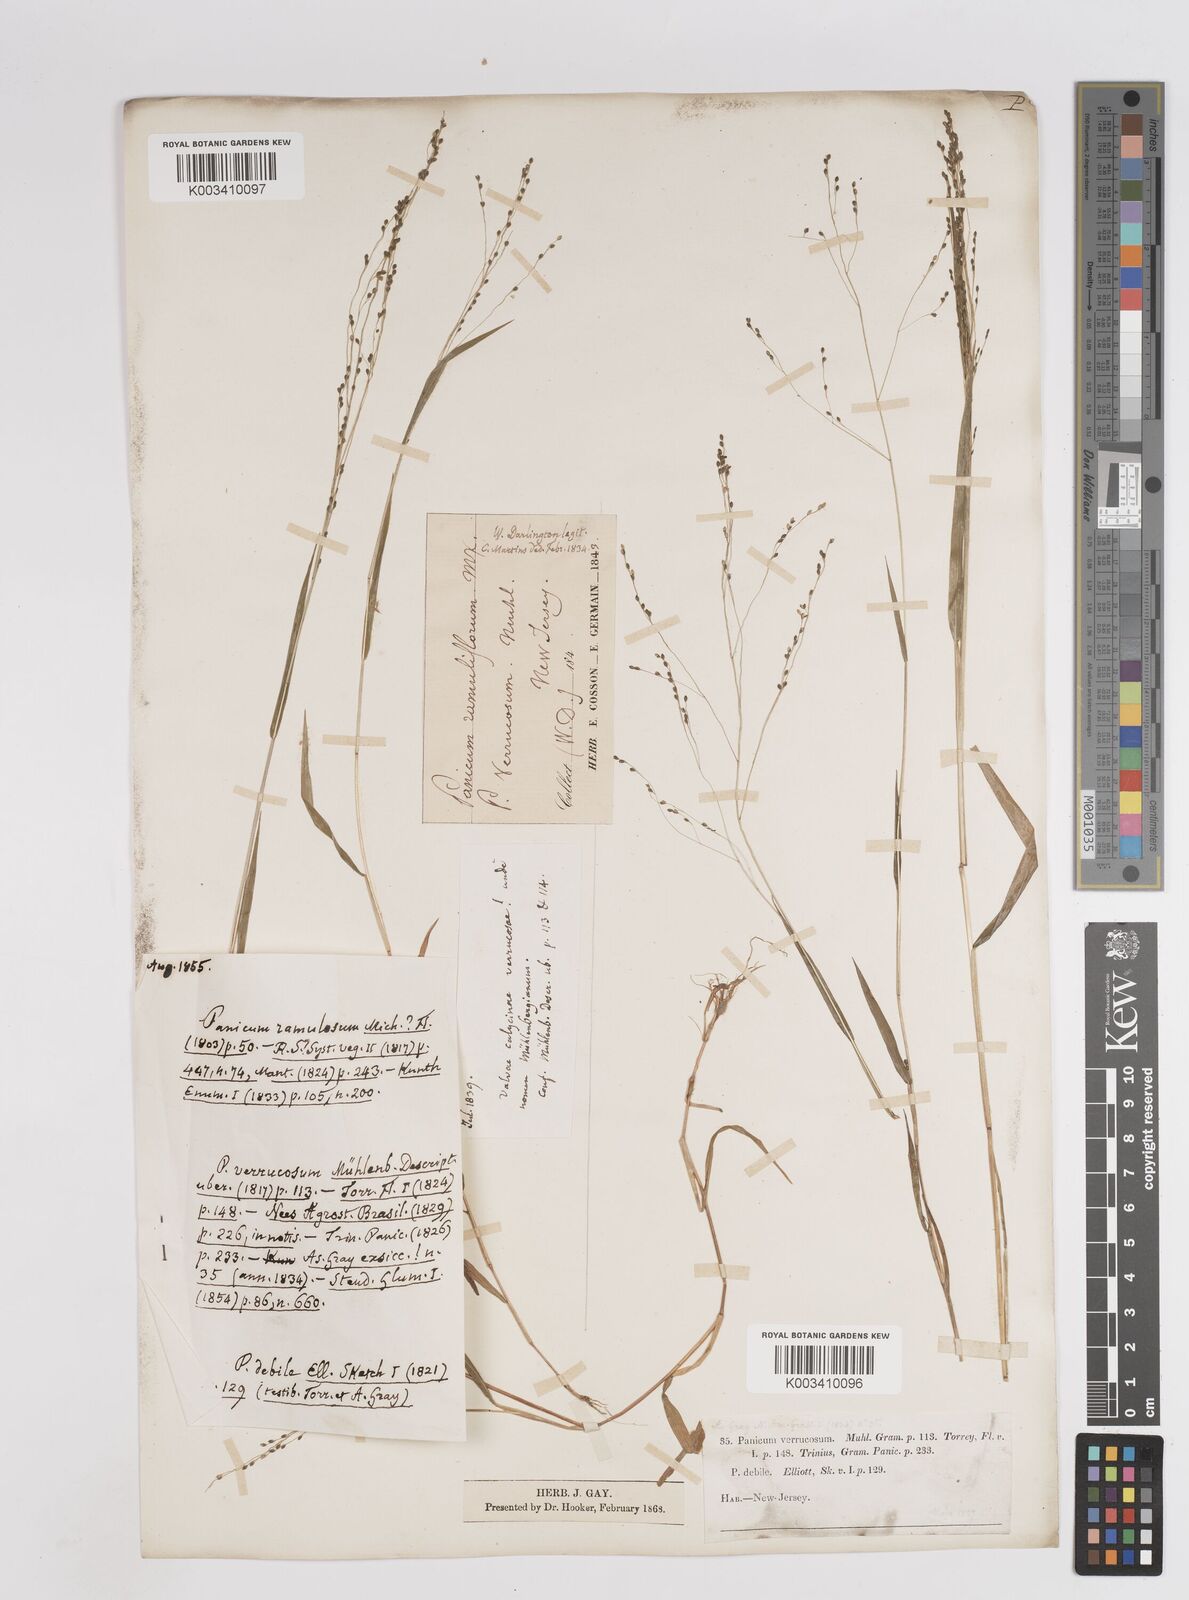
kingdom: Plantae
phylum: Tracheophyta
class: Liliopsida
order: Poales
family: Poaceae
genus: Kellochloa
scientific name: Kellochloa verrucosa
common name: Warty panic grass
